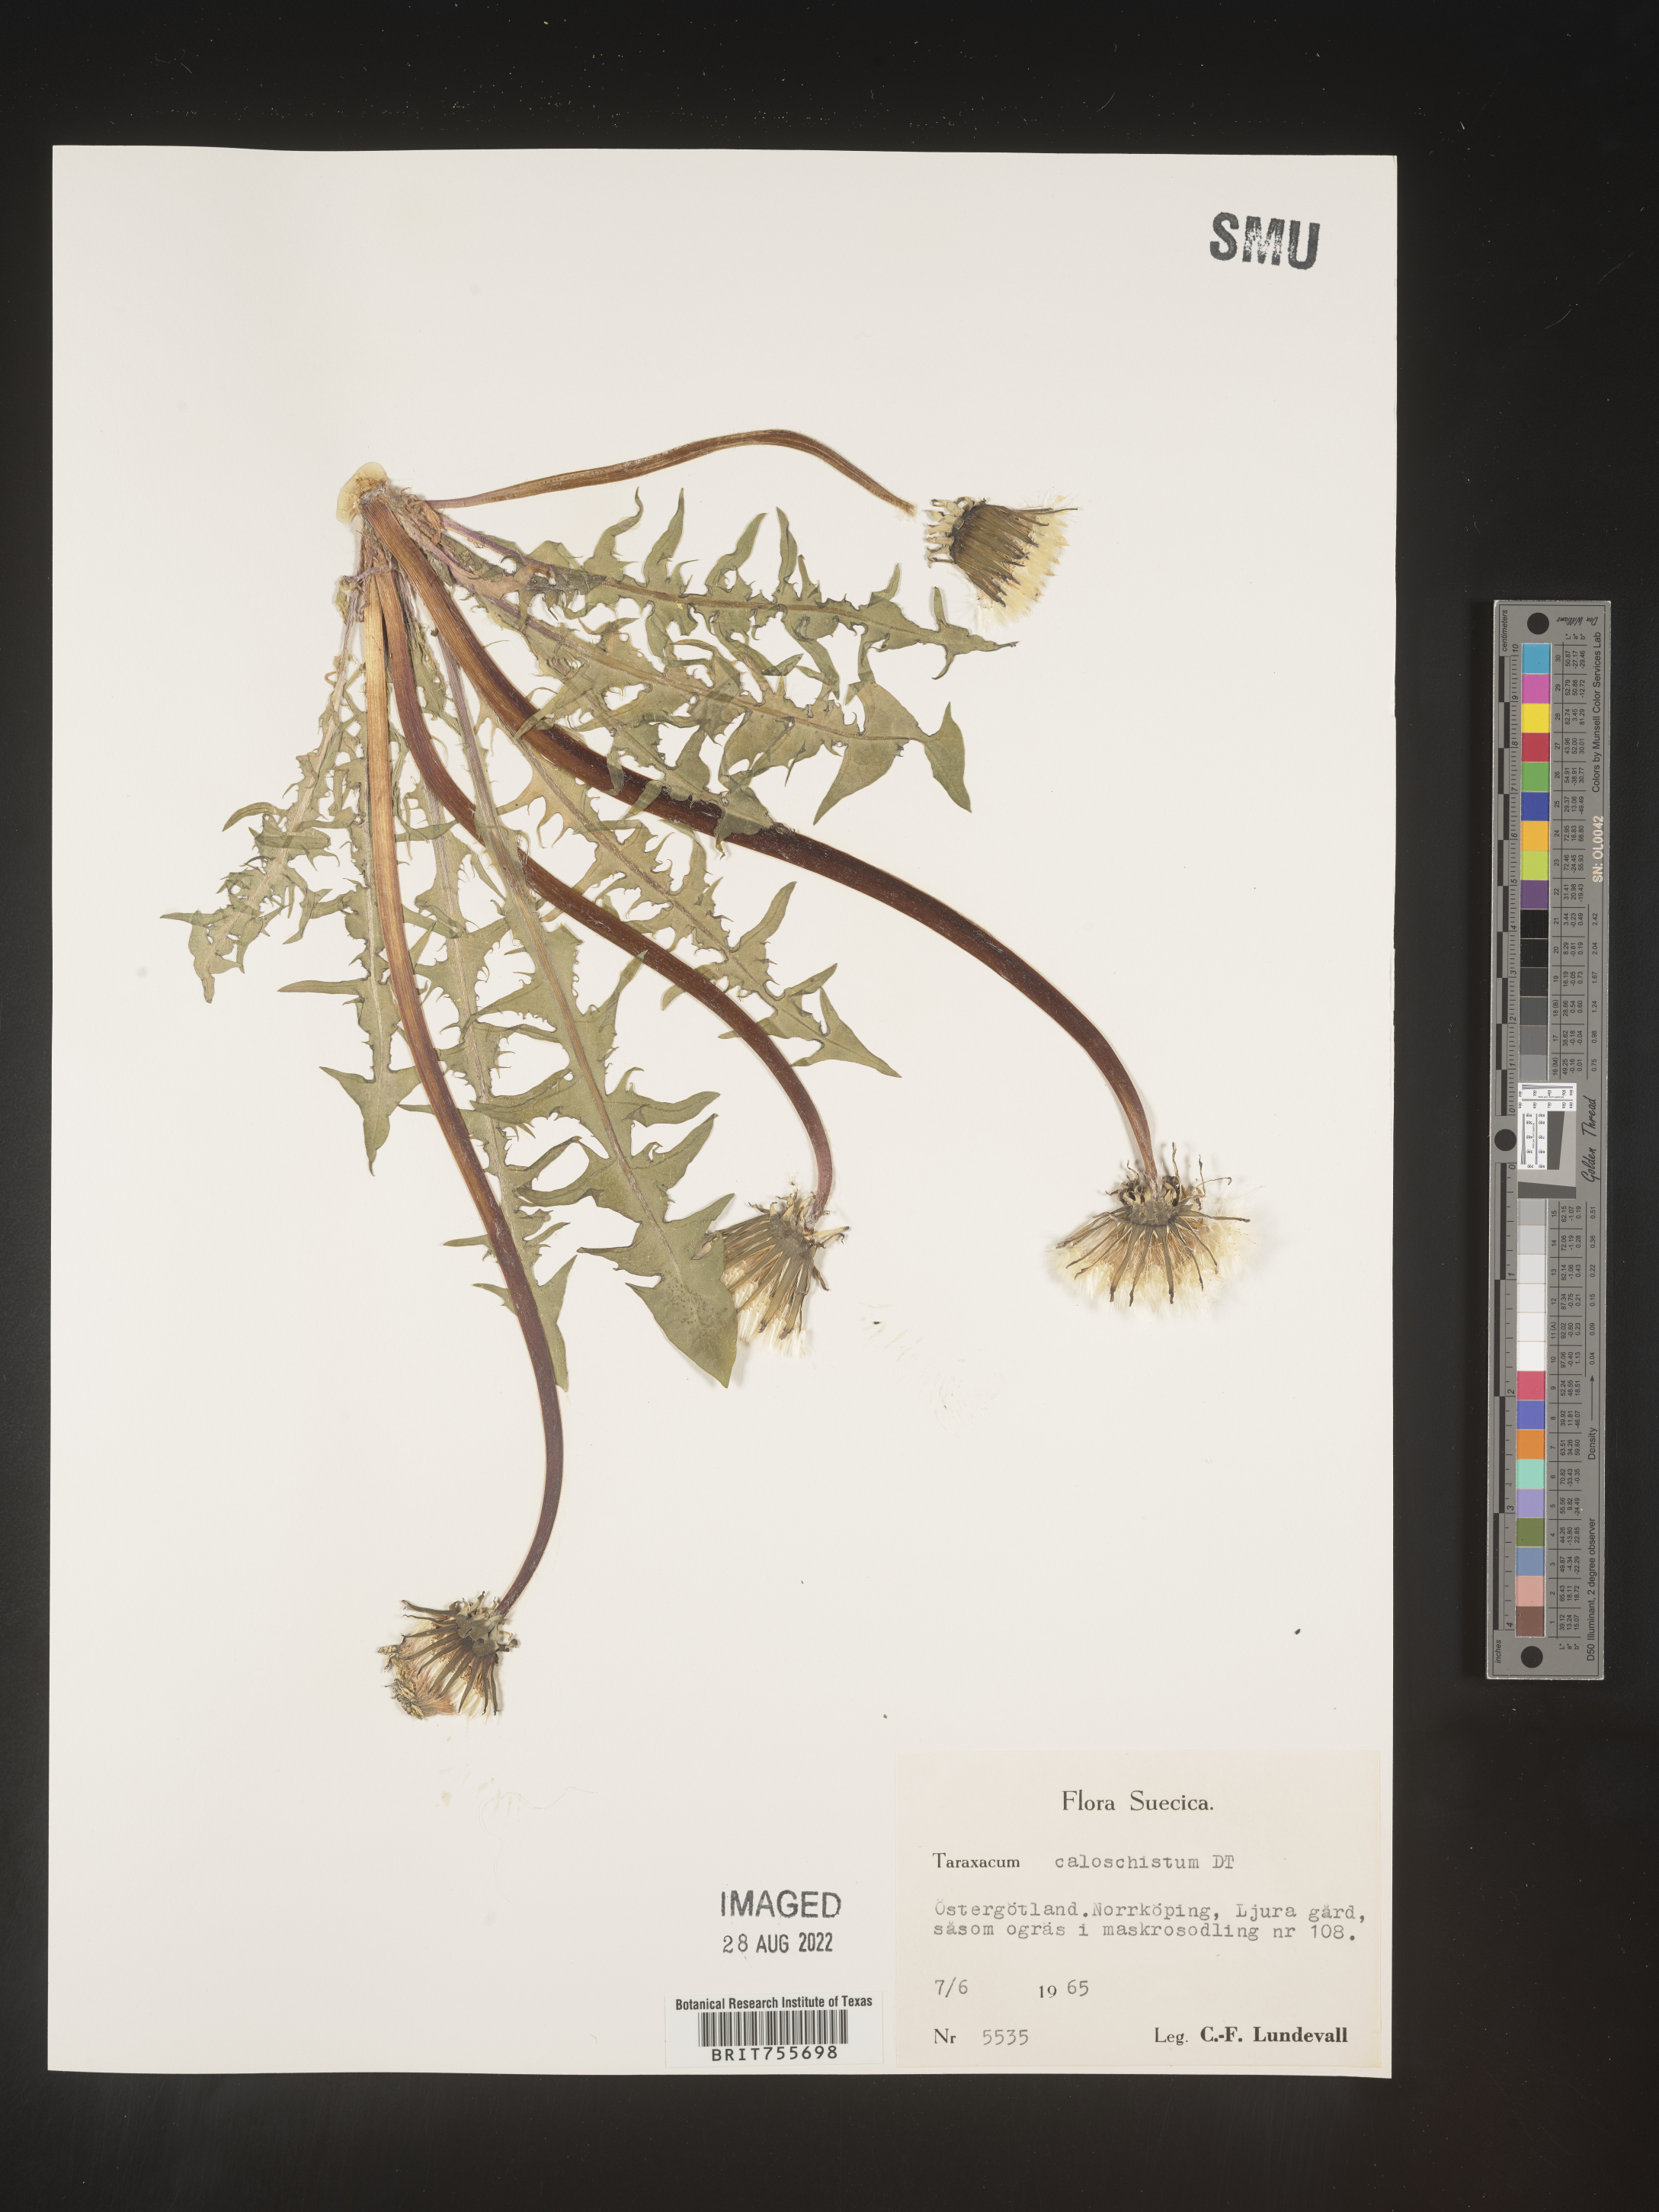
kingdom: Plantae
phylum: Tracheophyta
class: Magnoliopsida
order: Asterales
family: Asteraceae
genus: Taraxacum
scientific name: Taraxacum
